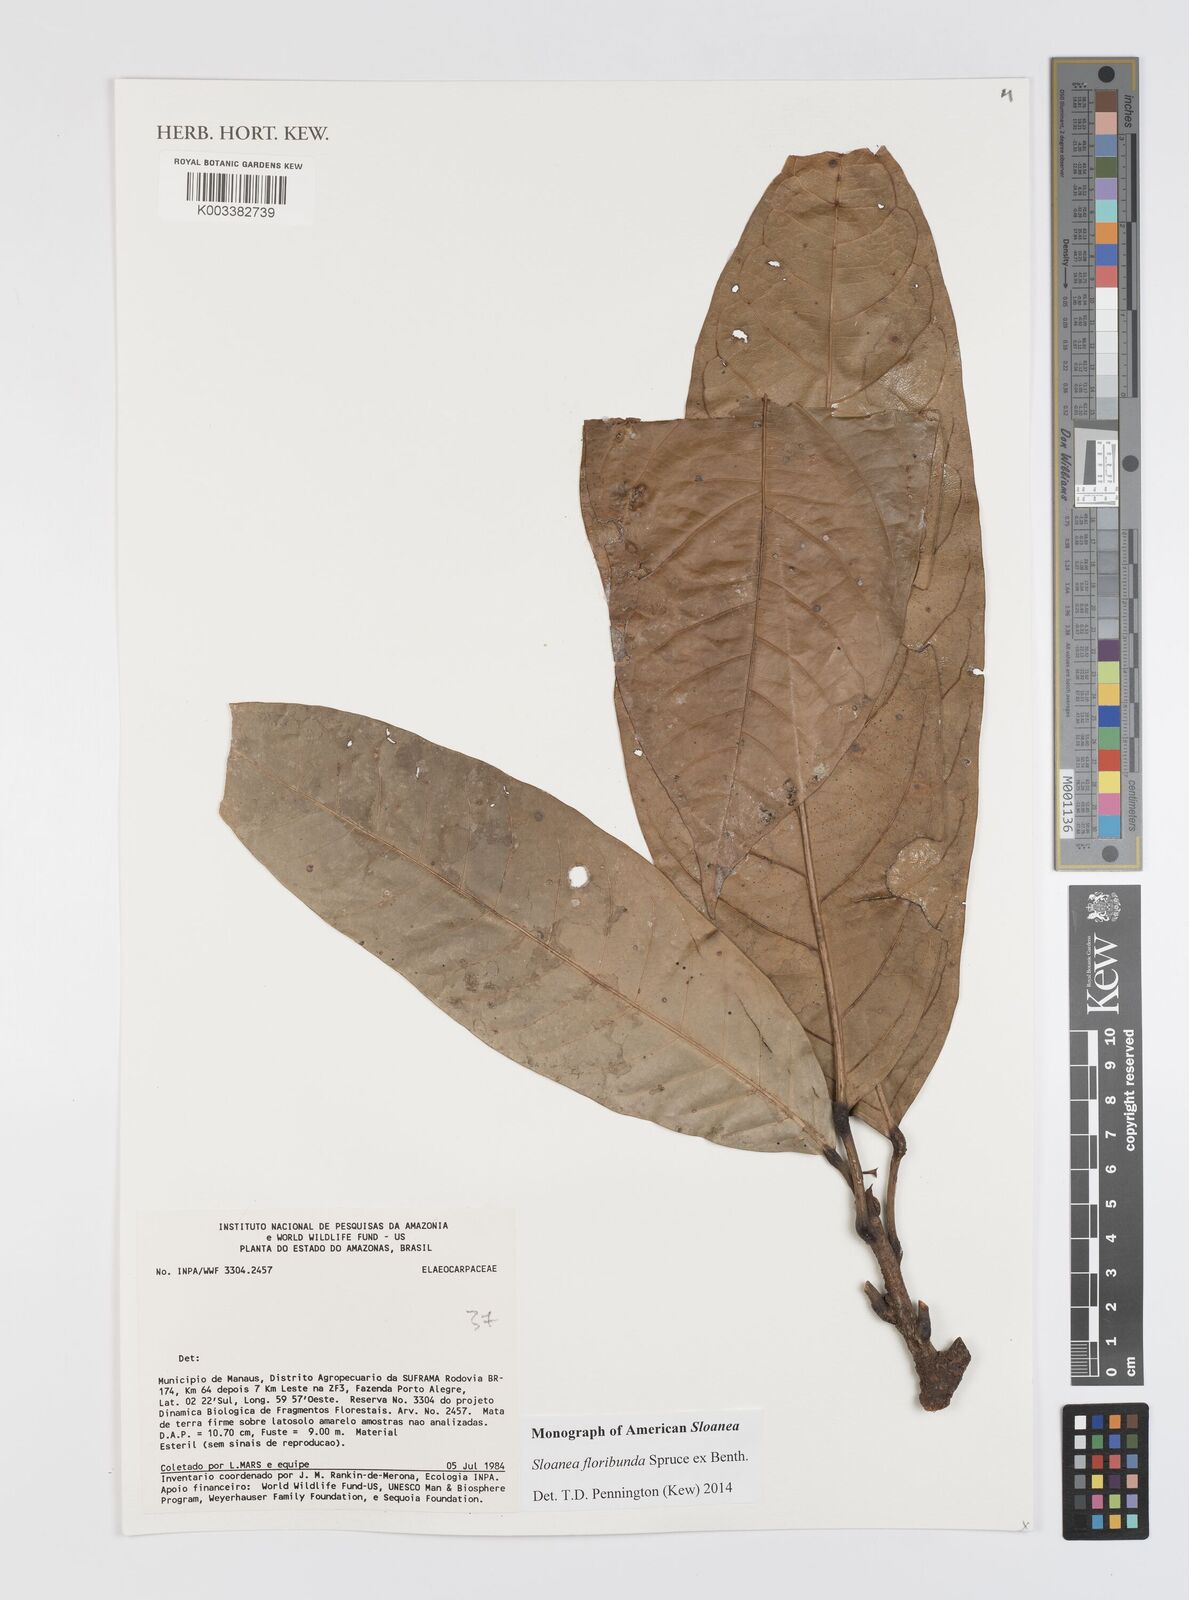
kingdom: Plantae
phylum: Tracheophyta
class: Magnoliopsida
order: Oxalidales
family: Elaeocarpaceae
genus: Sloanea
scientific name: Sloanea floribunda
